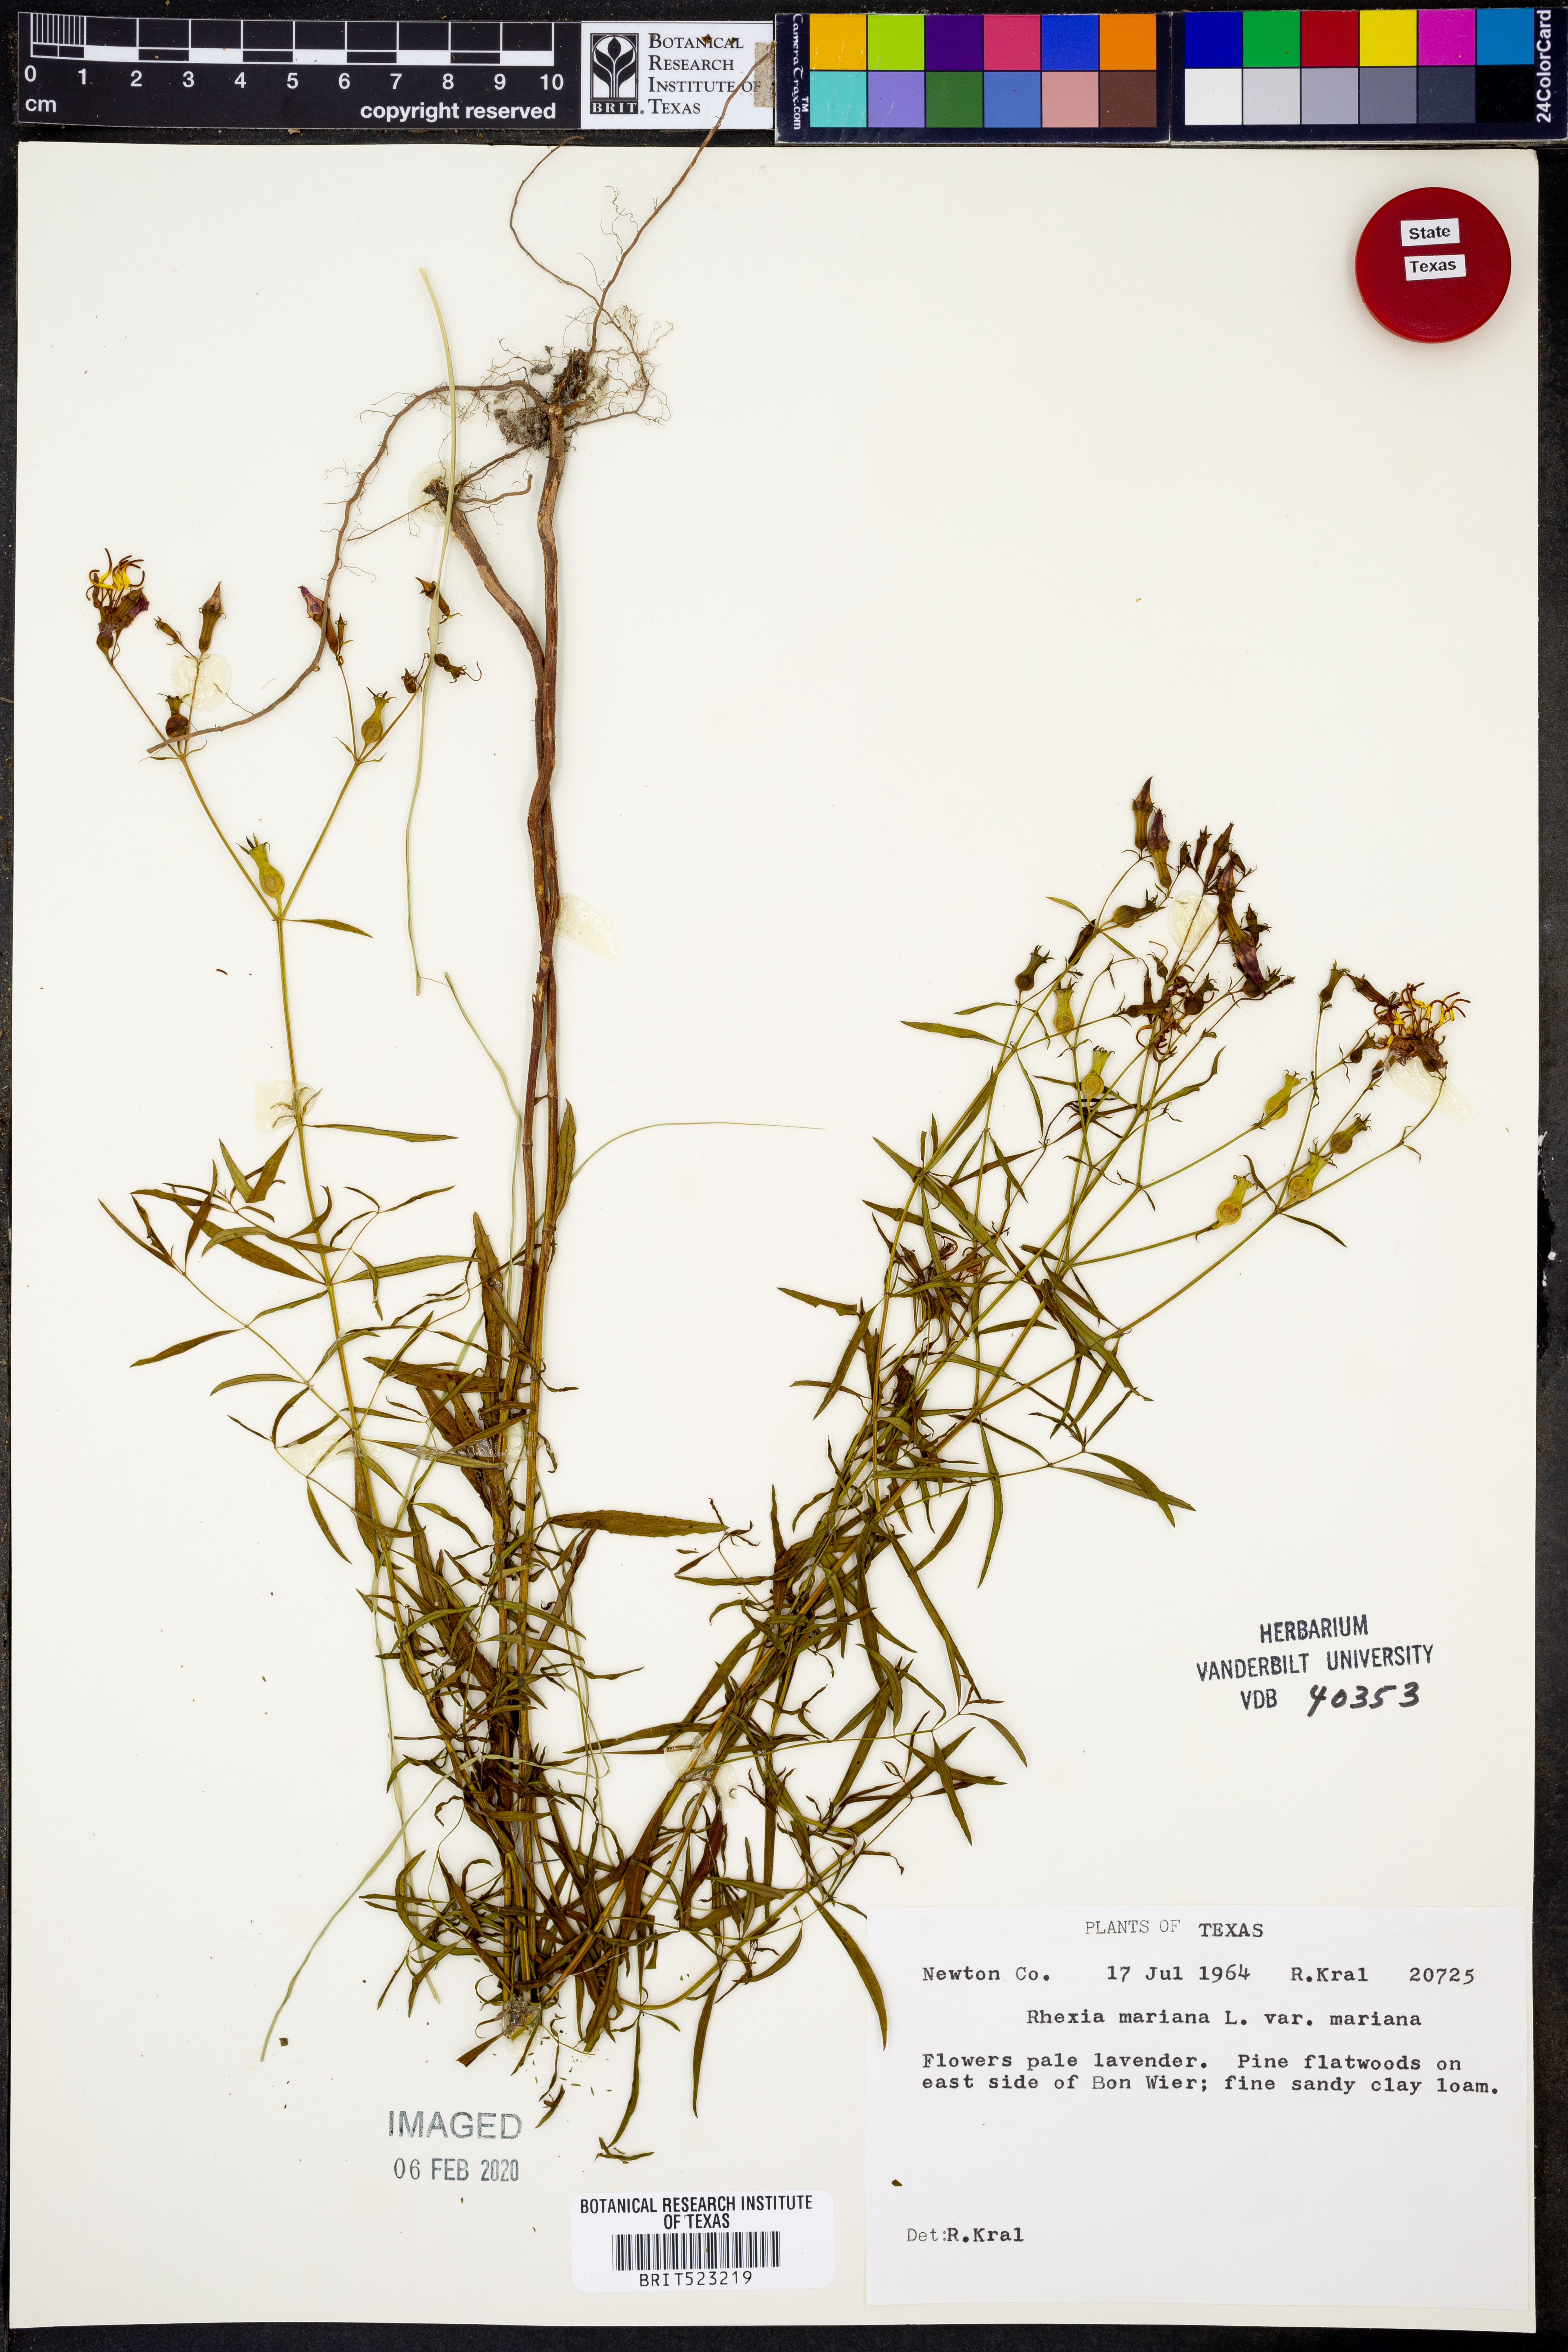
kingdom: Plantae
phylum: Tracheophyta
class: Magnoliopsida
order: Myrtales
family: Melastomataceae
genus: Rhexia
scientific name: Rhexia mariana
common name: Dull meadow-pitcher
